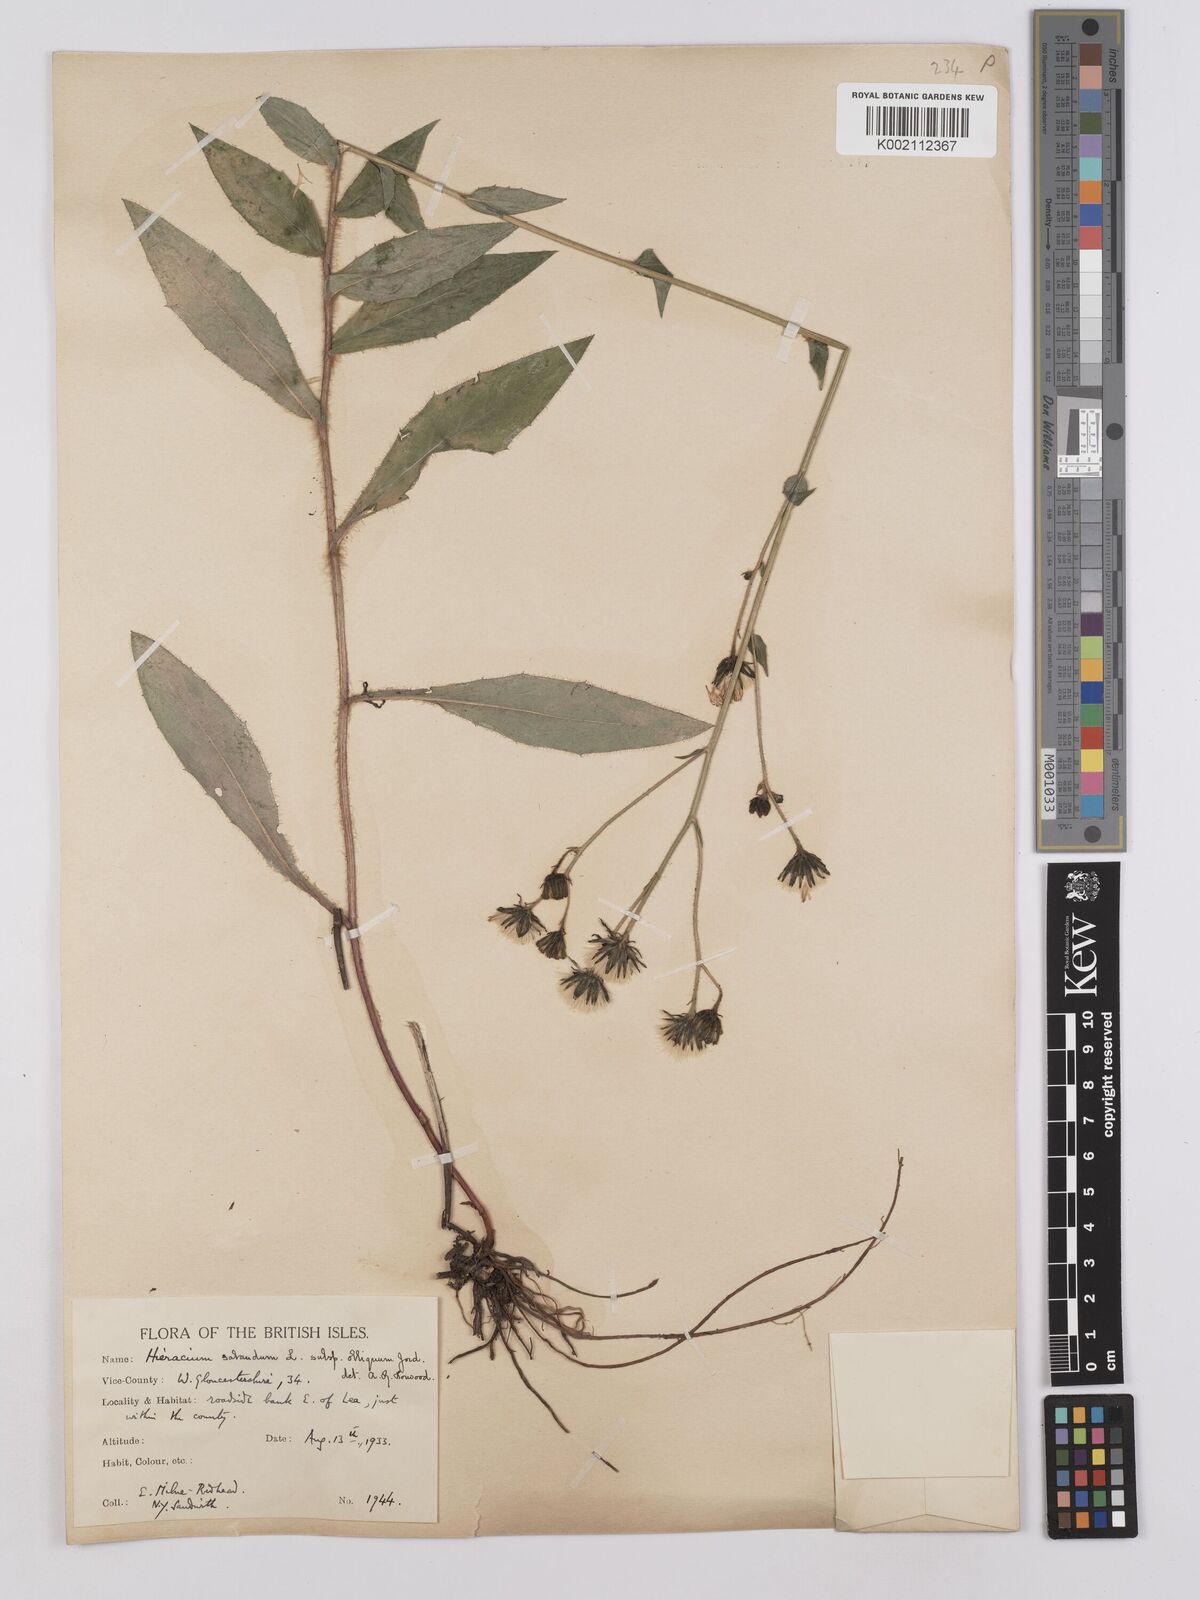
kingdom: Plantae
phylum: Tracheophyta
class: Magnoliopsida
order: Asterales
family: Asteraceae
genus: Hieracium
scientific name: Hieracium sabaudum
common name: New england hawkweed
